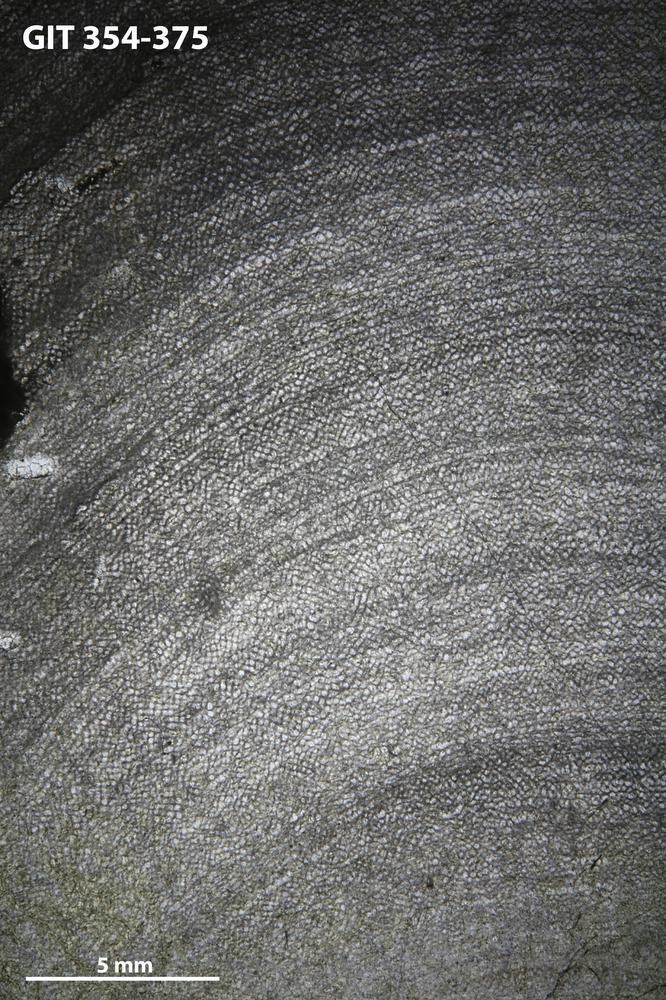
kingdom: Animalia
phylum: Porifera
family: Ecclimadictyidae
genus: Ecclimadictyon
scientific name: Ecclimadictyon macrotuberculatum
